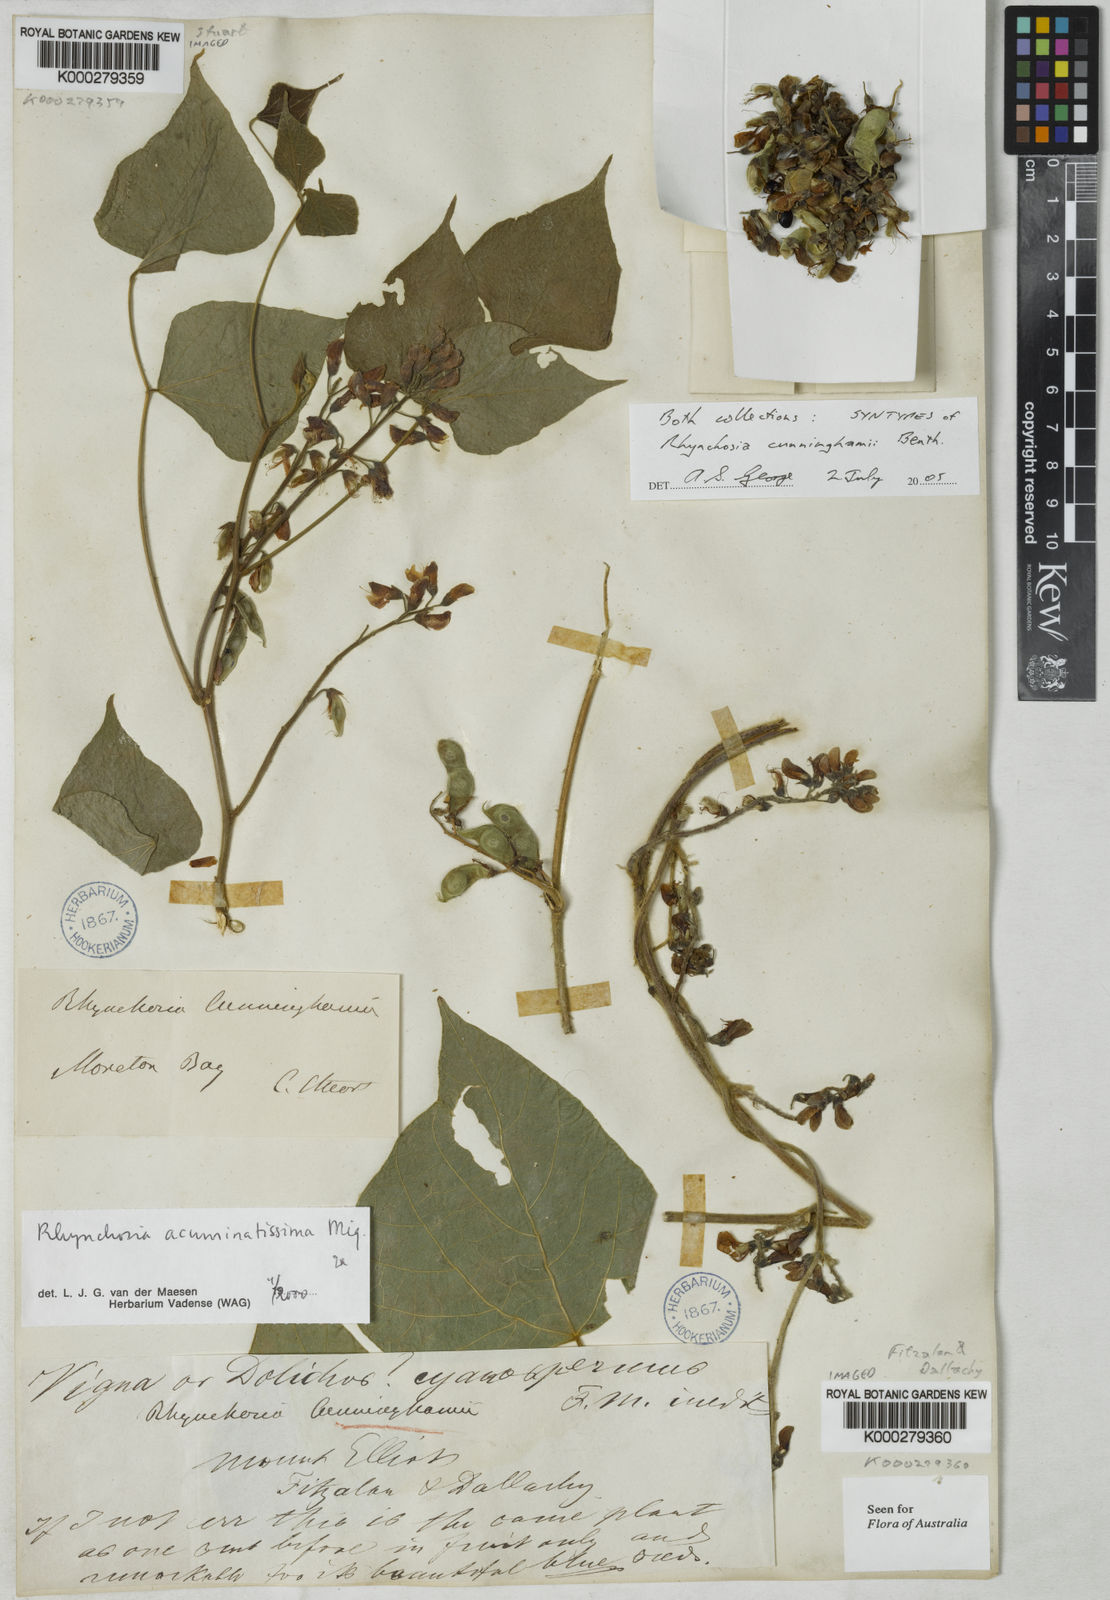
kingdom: Plantae
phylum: Tracheophyta
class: Magnoliopsida
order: Fabales
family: Fabaceae
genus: Rhynchosia
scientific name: Rhynchosia acuminatissima
